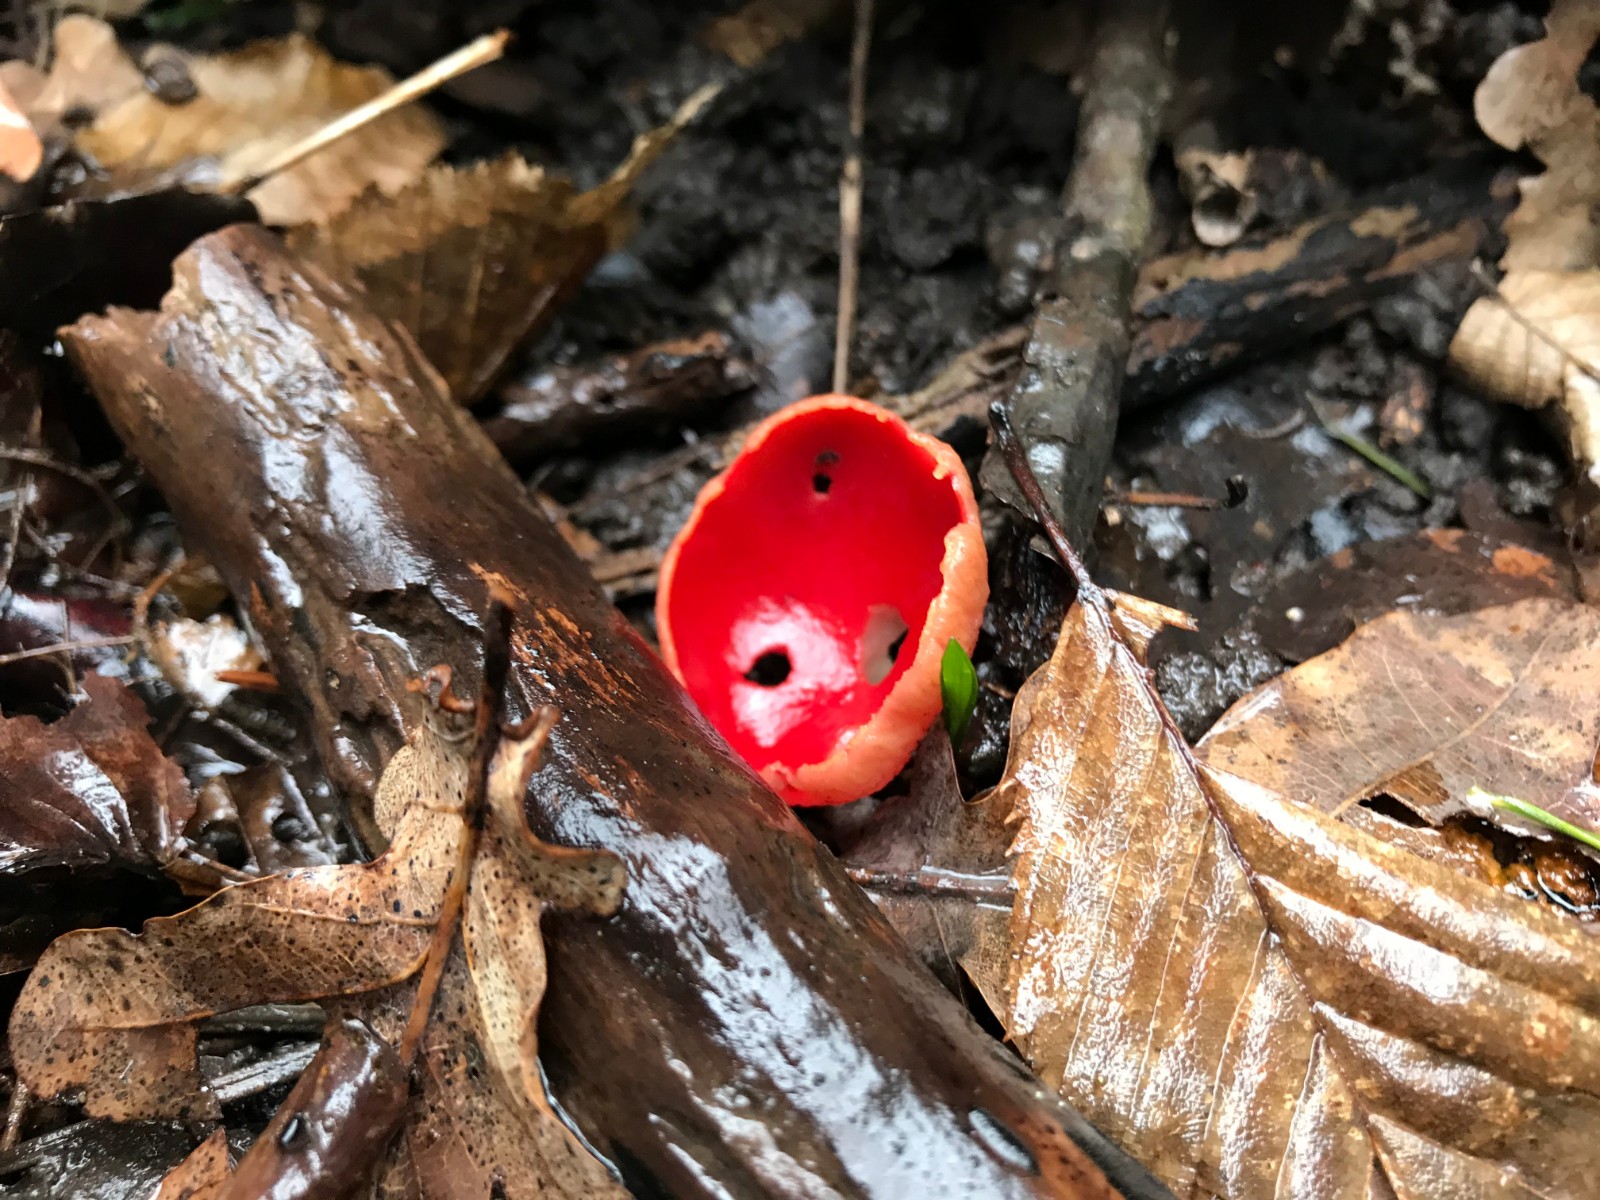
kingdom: Fungi
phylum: Ascomycota
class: Pezizomycetes
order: Pezizales
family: Sarcoscyphaceae
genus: Sarcoscypha
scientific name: Sarcoscypha austriaca
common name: krølhåret pragtbæger
